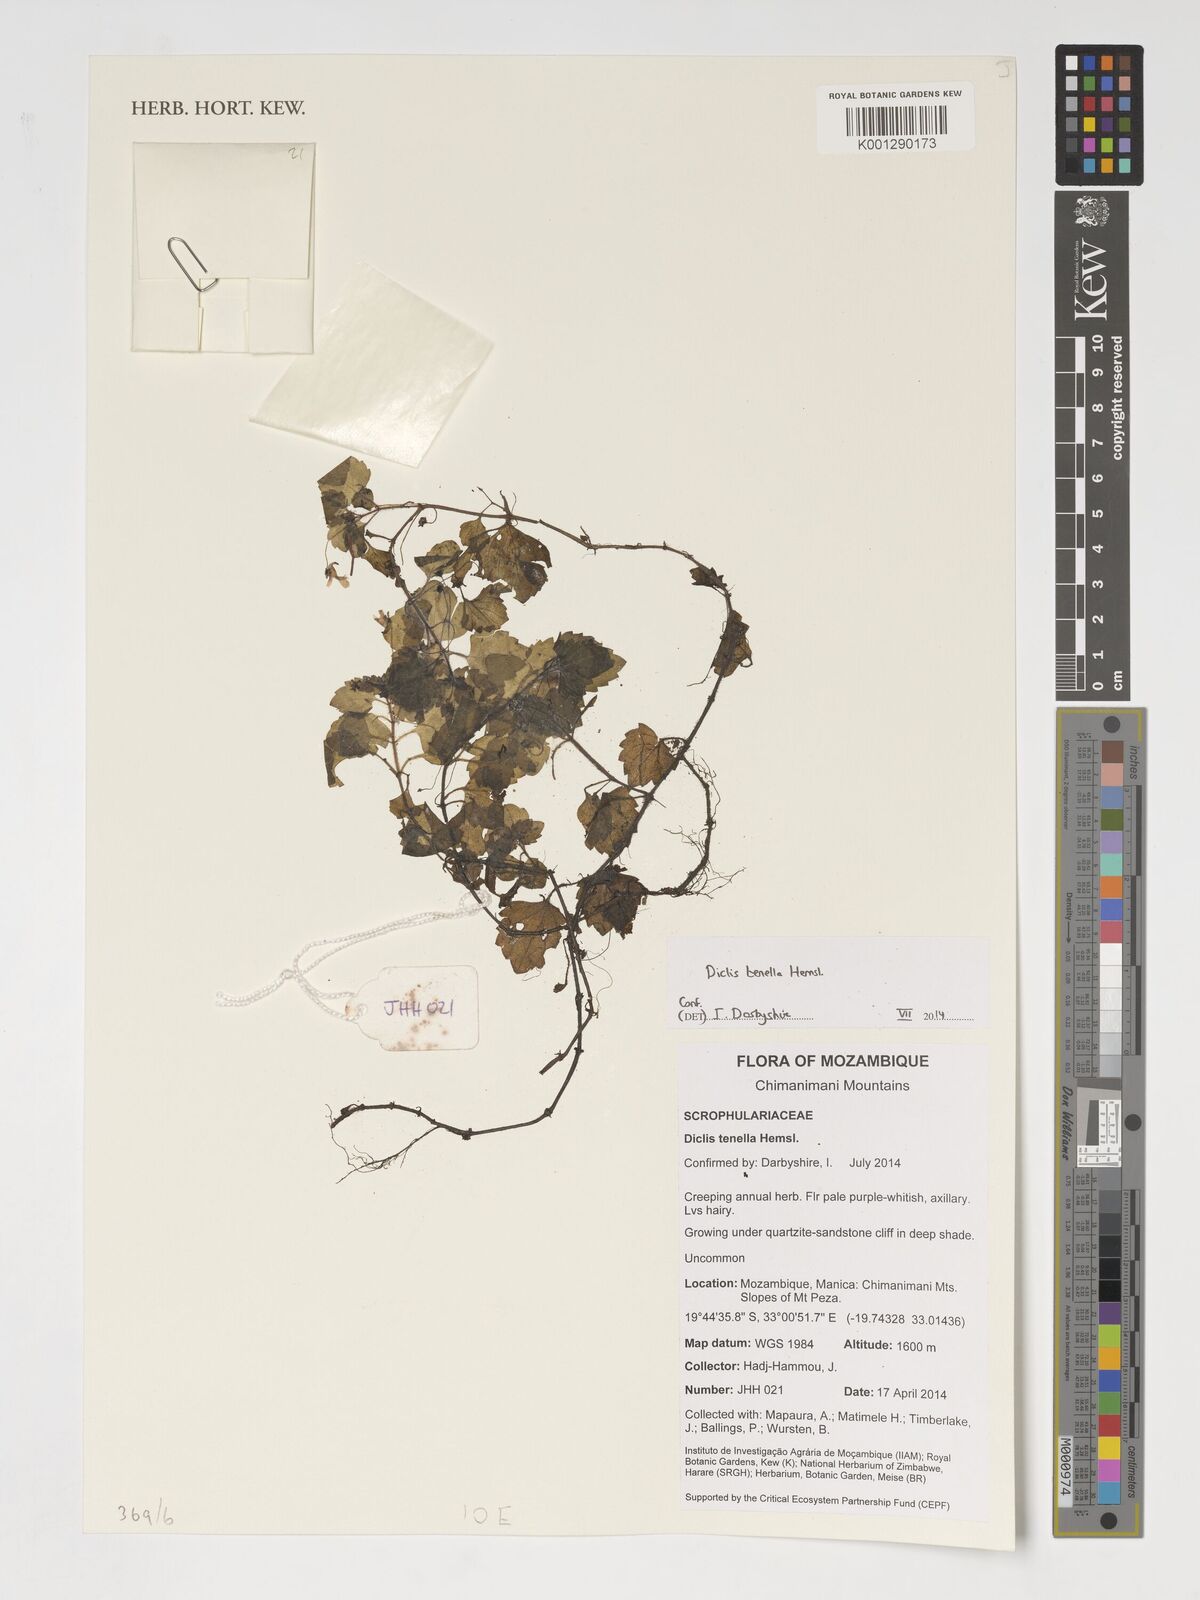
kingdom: Plantae
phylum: Tracheophyta
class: Magnoliopsida
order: Lamiales
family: Scrophulariaceae
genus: Diclis
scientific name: Diclis tenella
